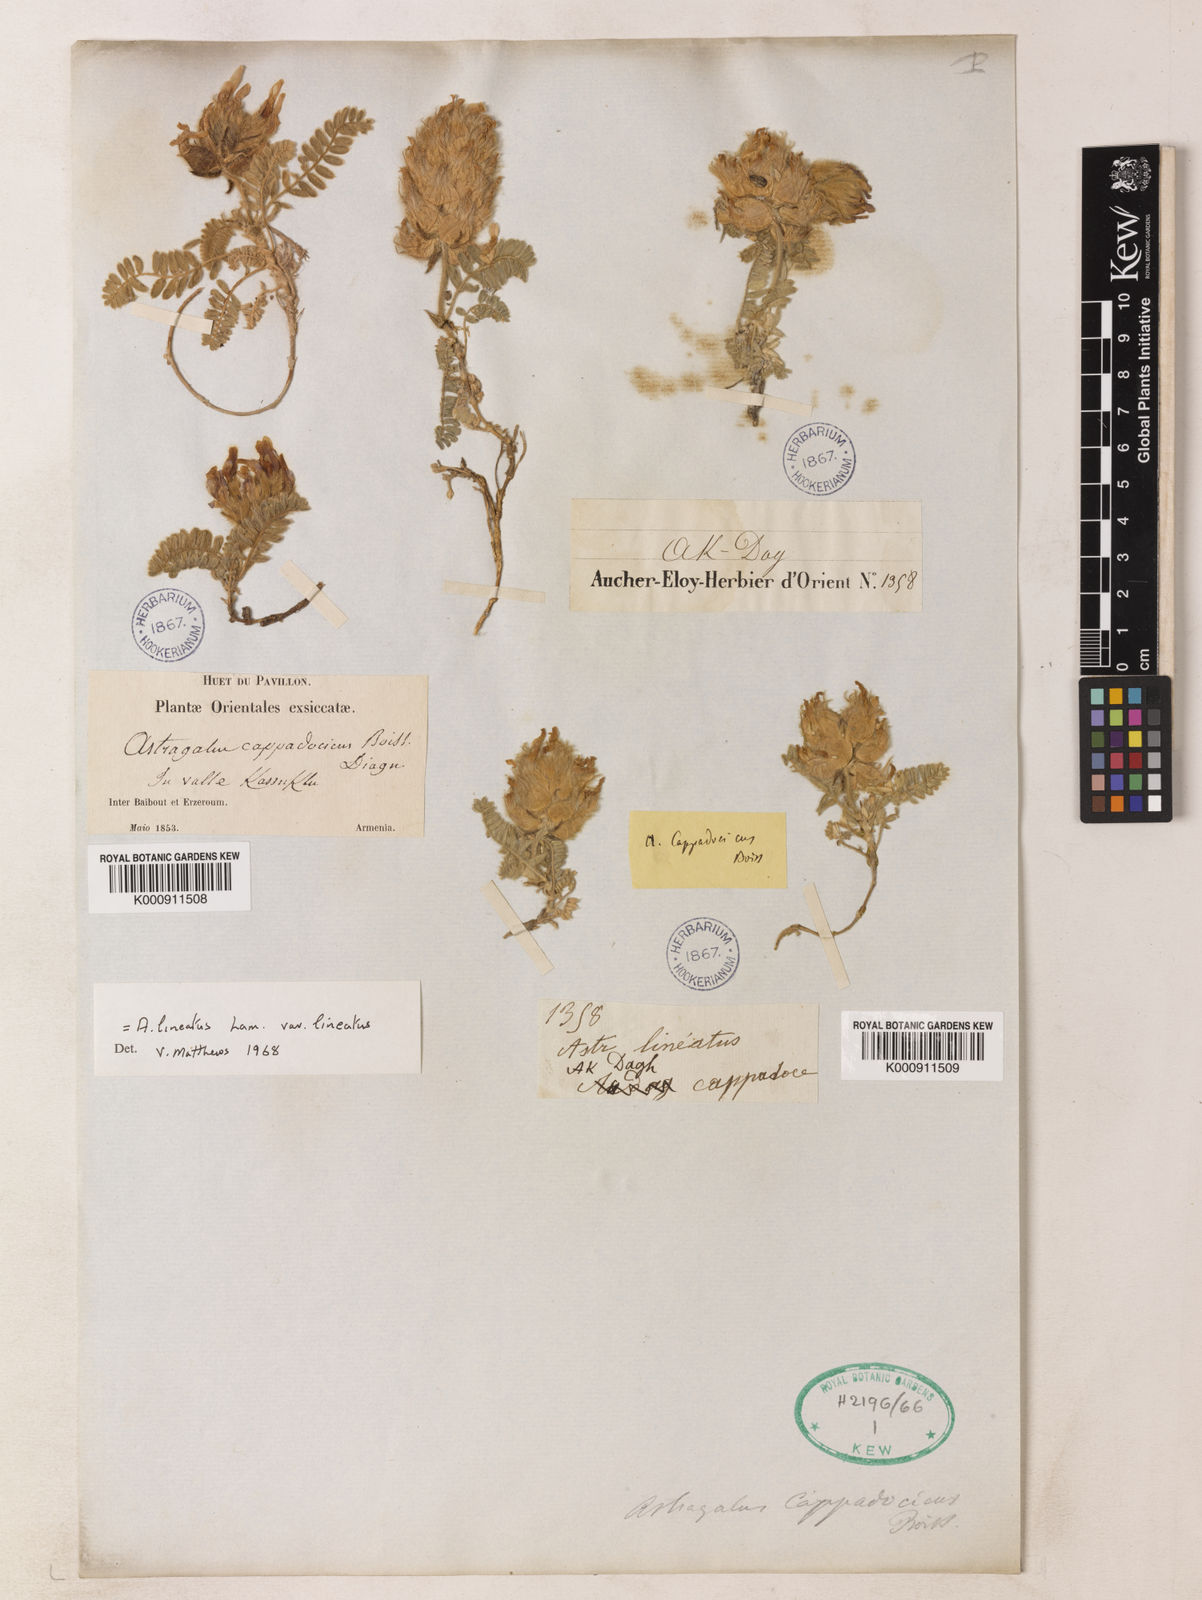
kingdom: Plantae
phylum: Tracheophyta
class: Magnoliopsida
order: Fabales
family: Fabaceae
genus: Astragalus
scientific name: Astragalus lineatus
